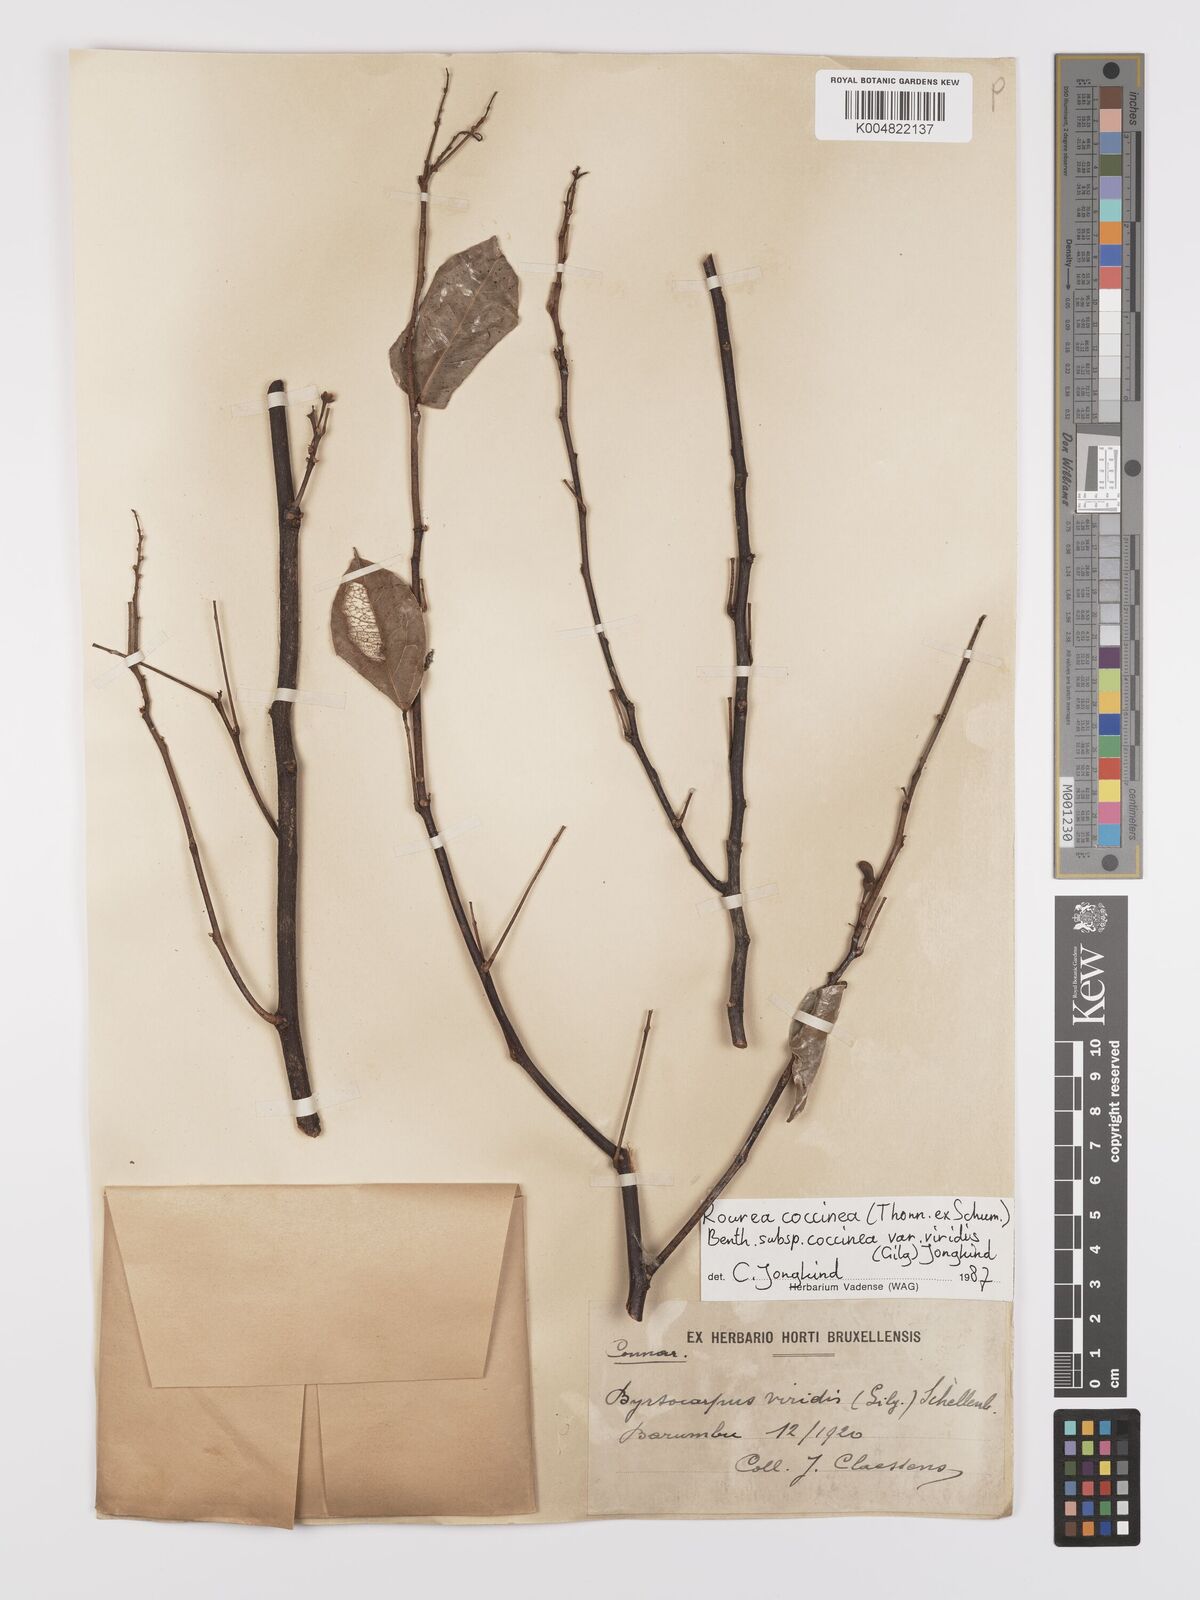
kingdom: Plantae
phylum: Tracheophyta
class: Magnoliopsida
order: Oxalidales
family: Connaraceae
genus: Rourea
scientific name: Rourea coccinea
